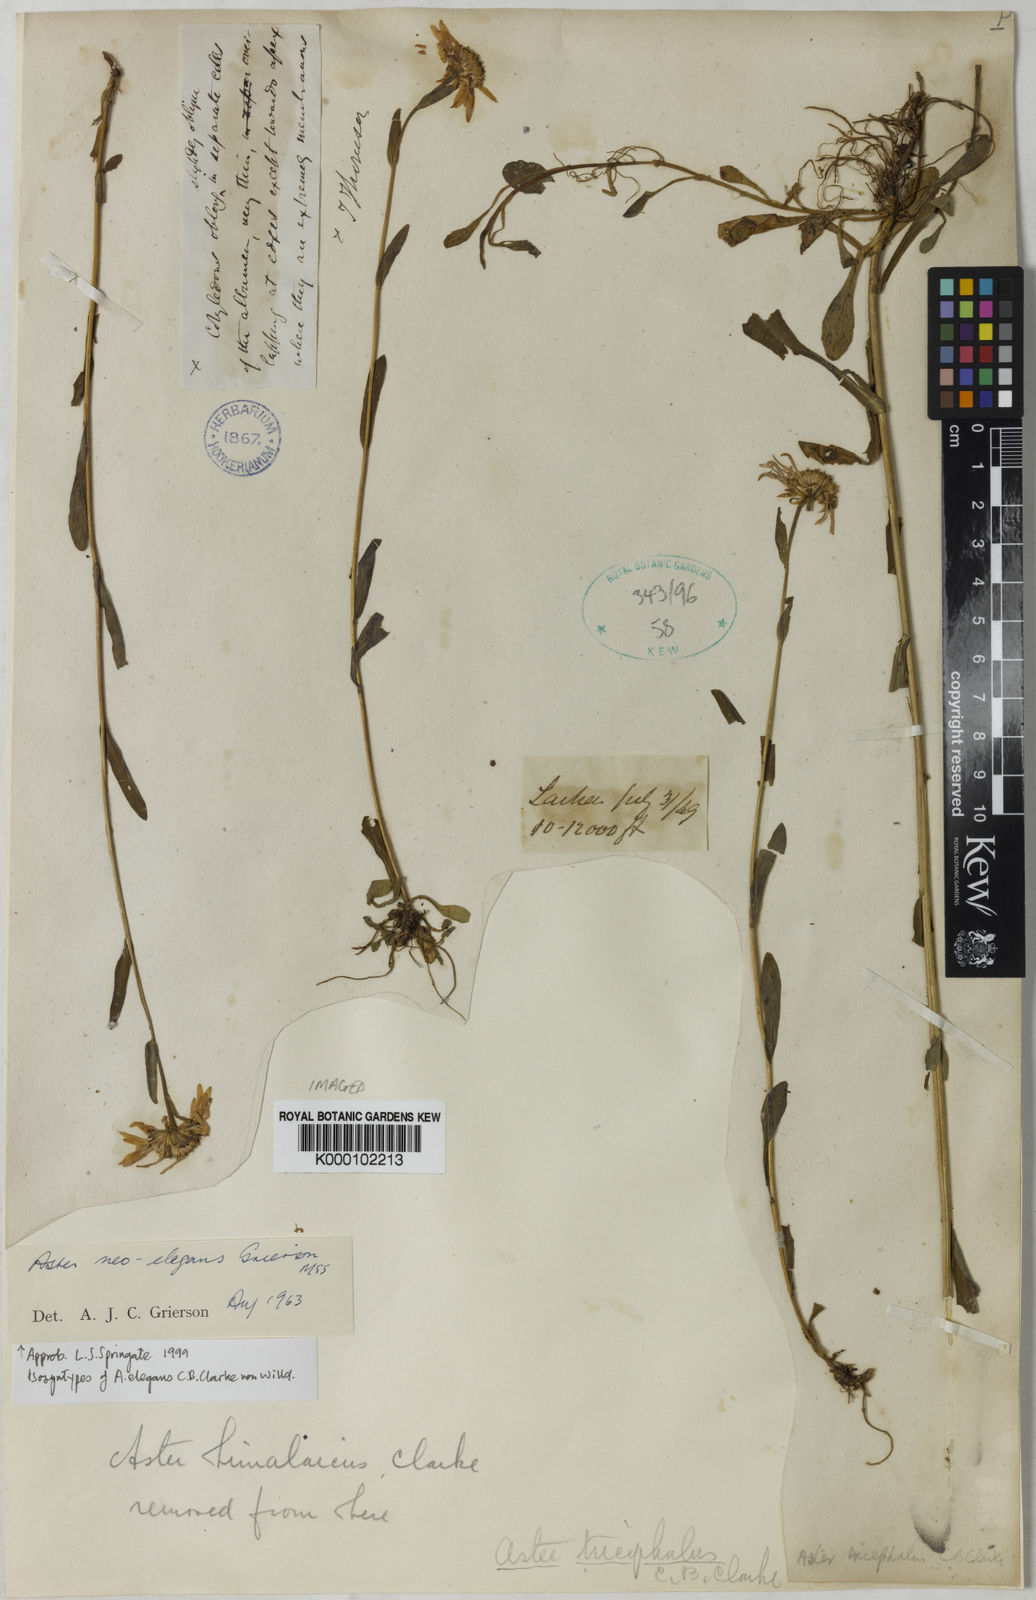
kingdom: Plantae
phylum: Tracheophyta
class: Magnoliopsida
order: Asterales
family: Asteraceae
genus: Aster
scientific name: Aster neoelegans
